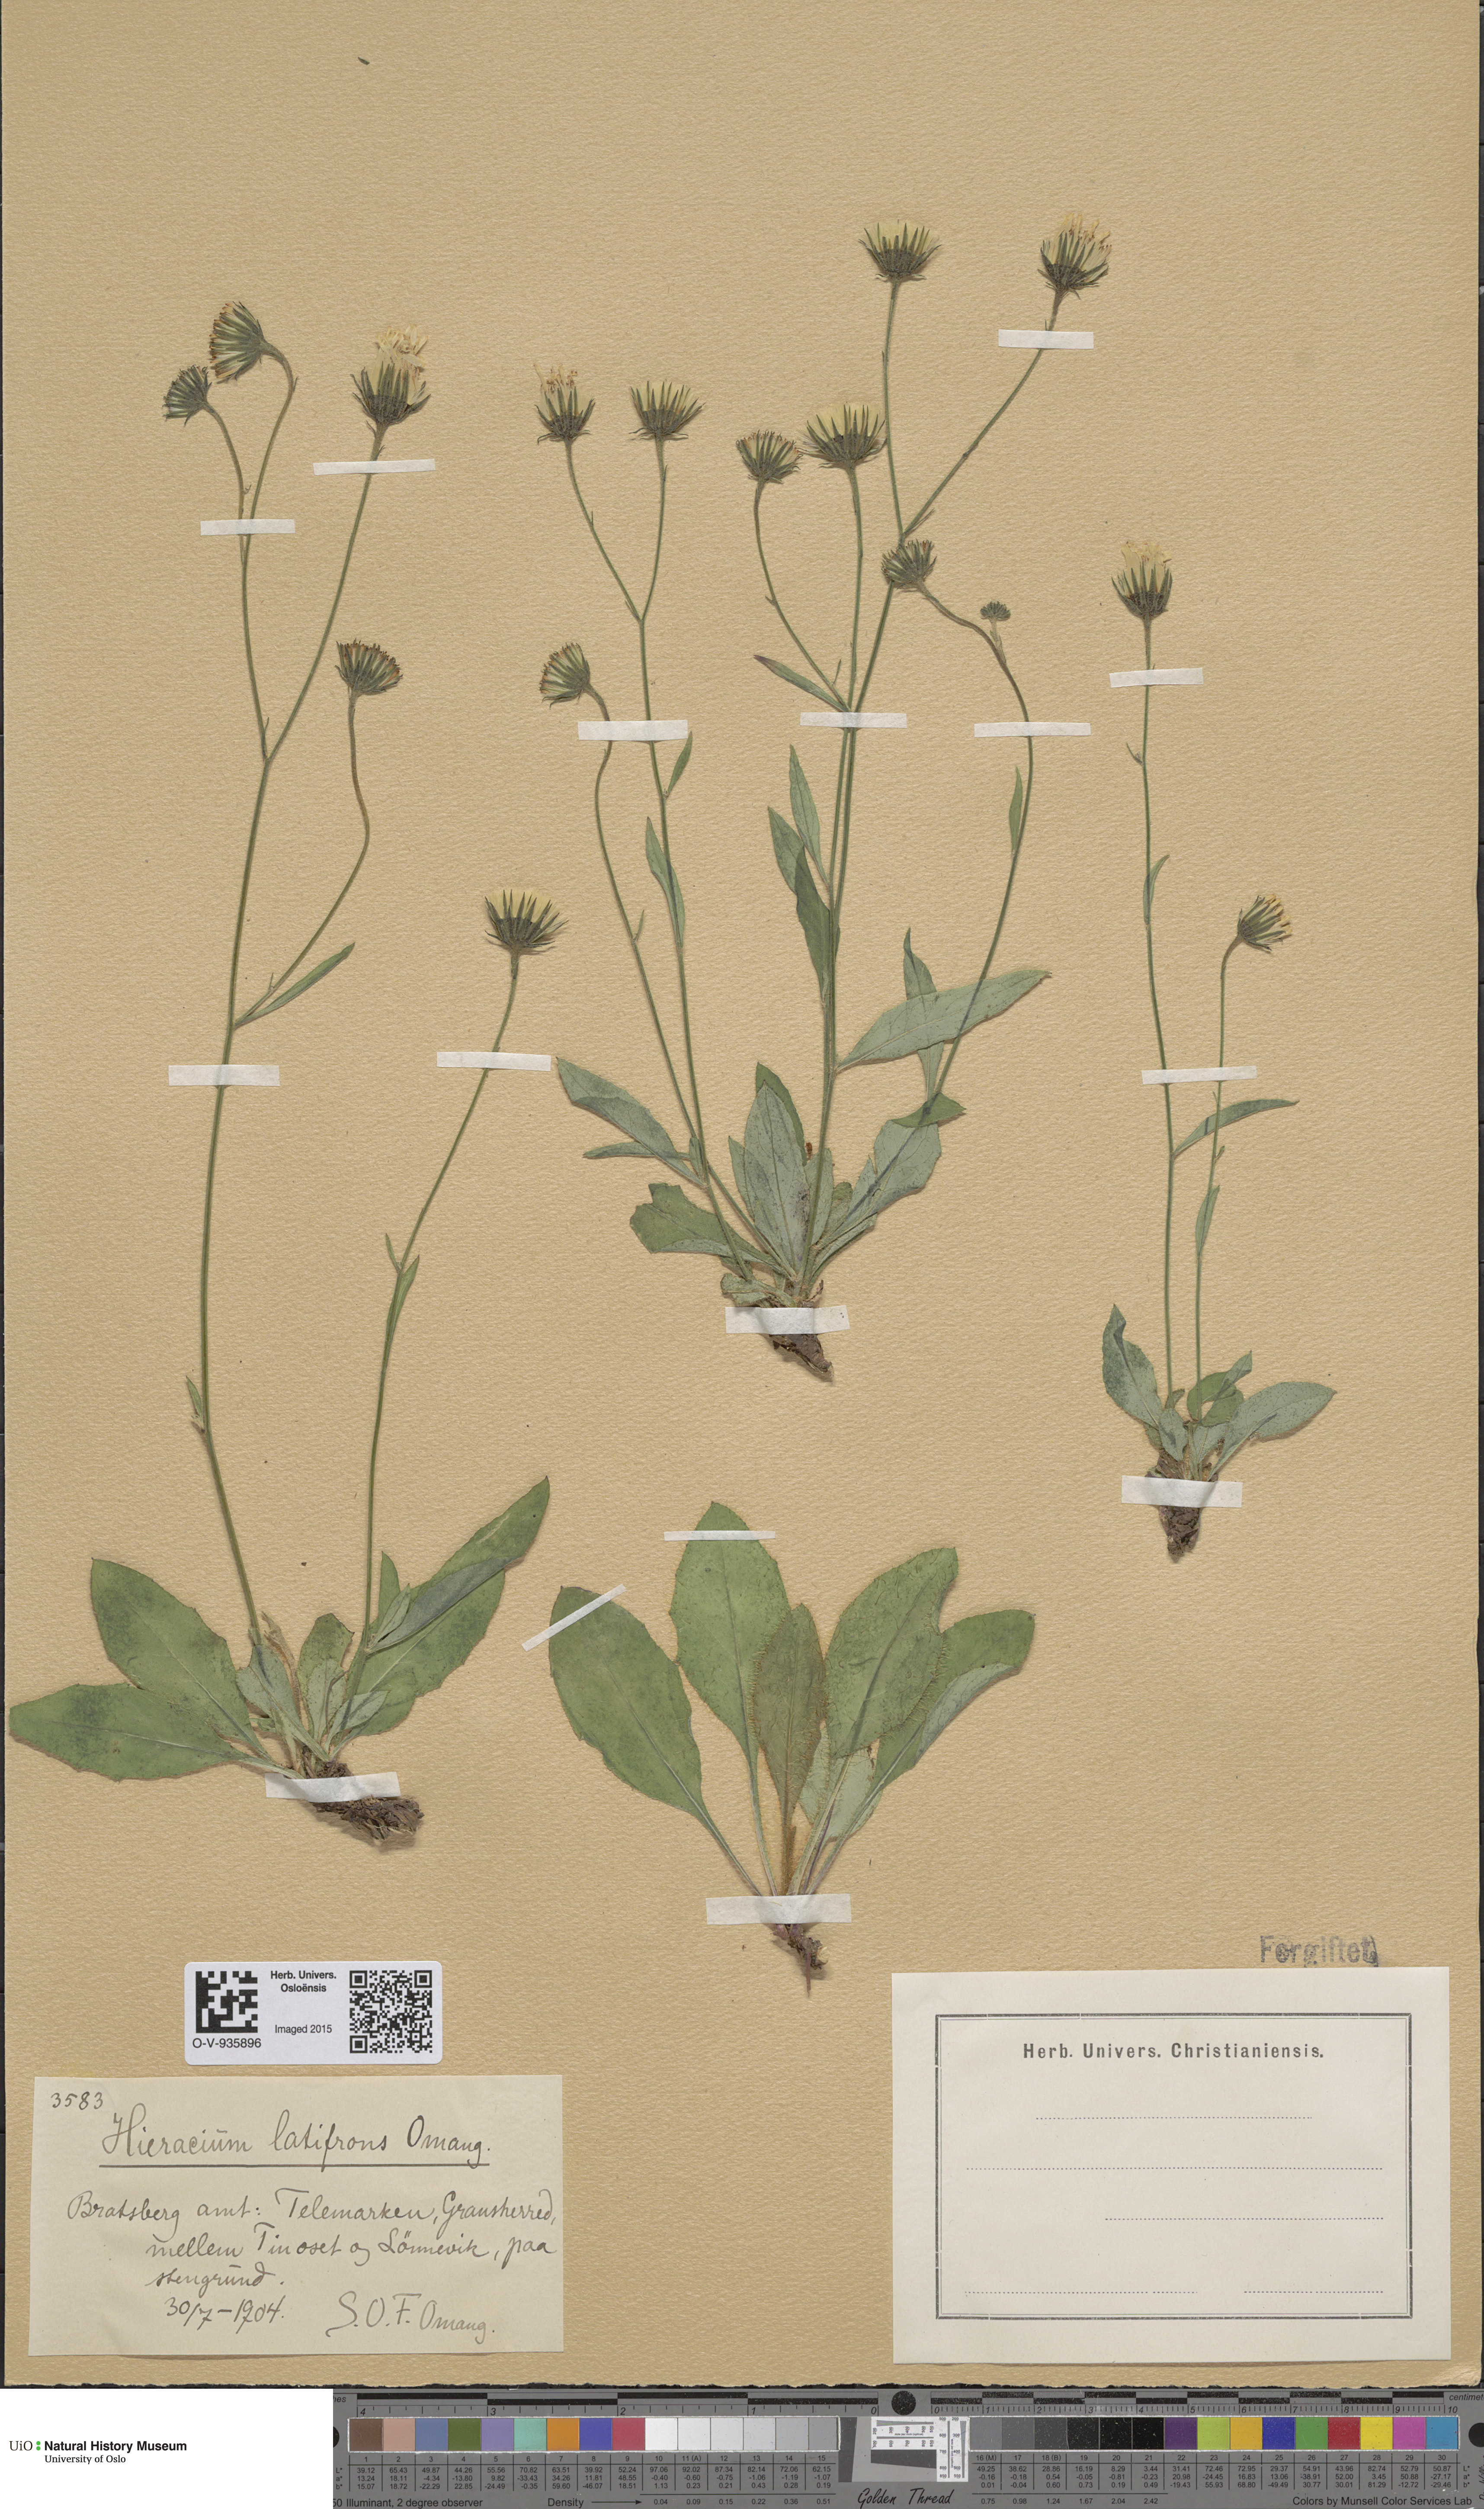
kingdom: Plantae
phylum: Tracheophyta
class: Magnoliopsida
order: Asterales
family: Asteraceae
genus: Hieracium
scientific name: Hieracium saxifragum
